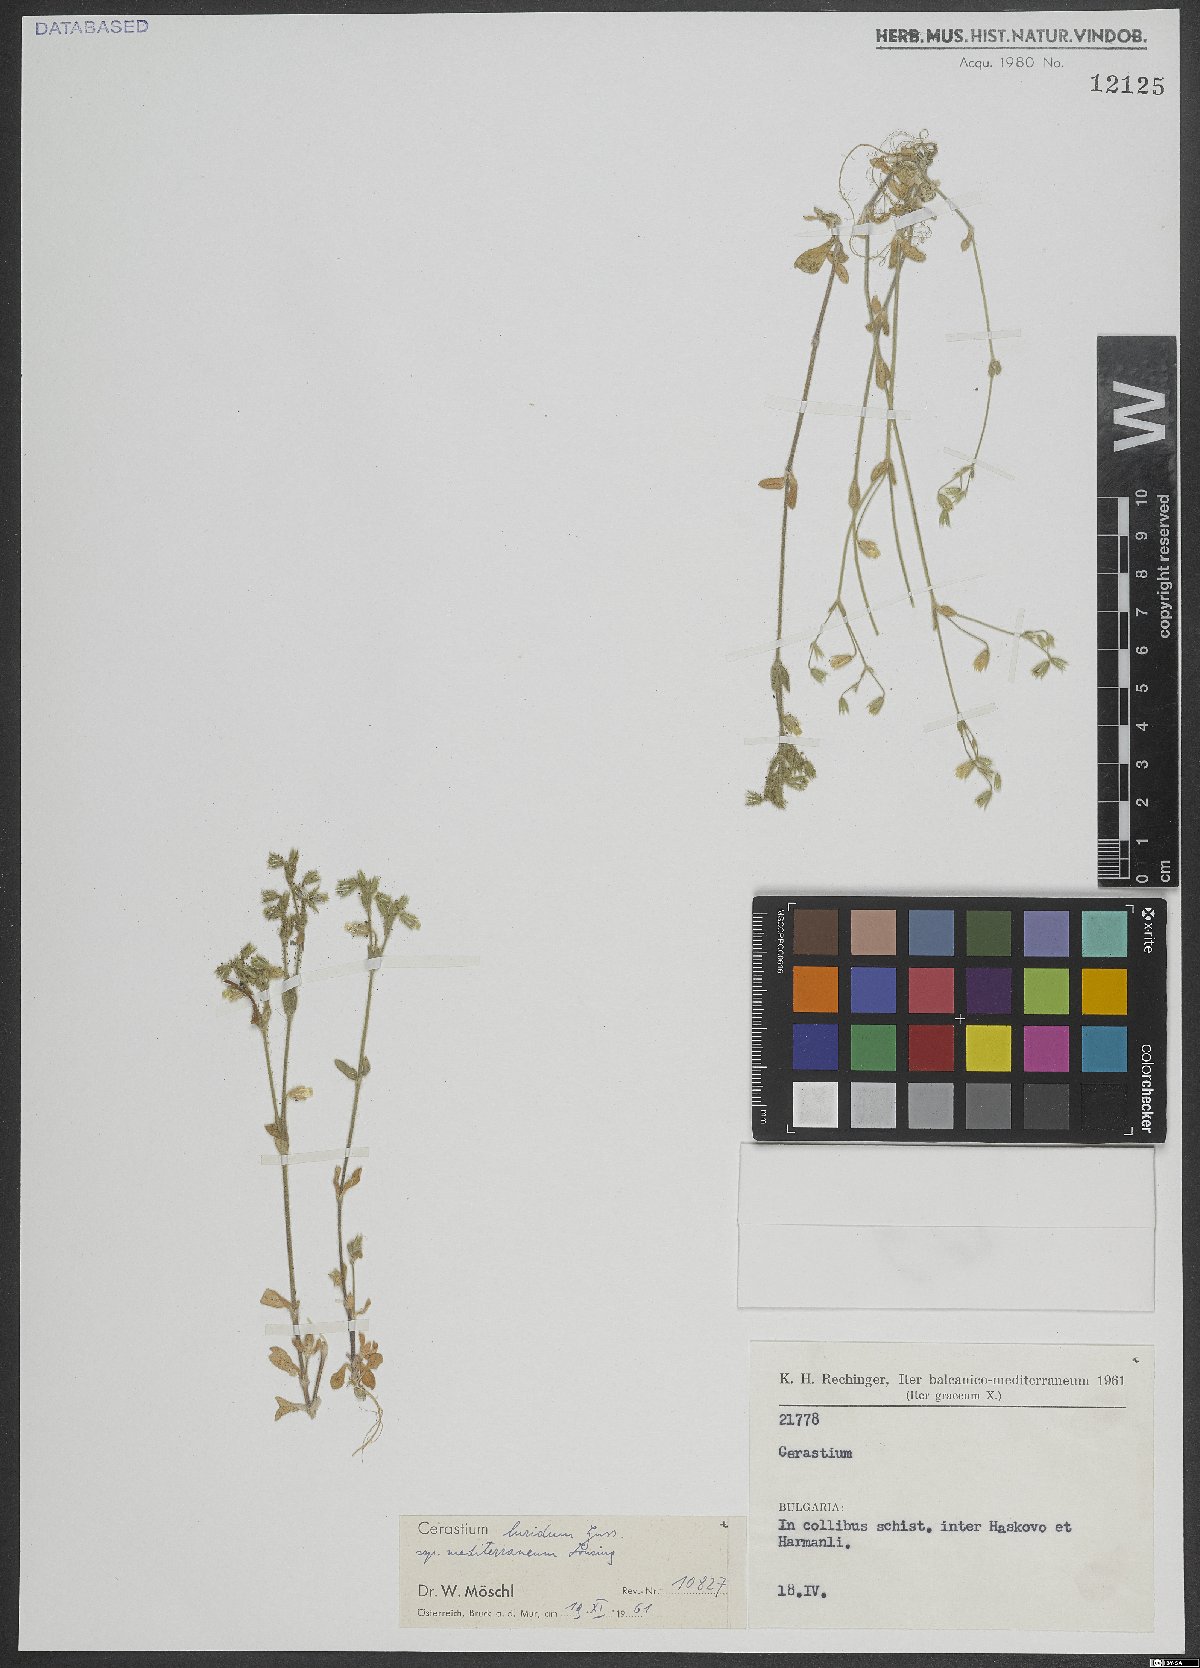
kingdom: Plantae
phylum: Tracheophyta
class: Magnoliopsida
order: Caryophyllales
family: Caryophyllaceae
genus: Cerastium
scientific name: Cerastium brachypetalum
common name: Grey mouse-ear
